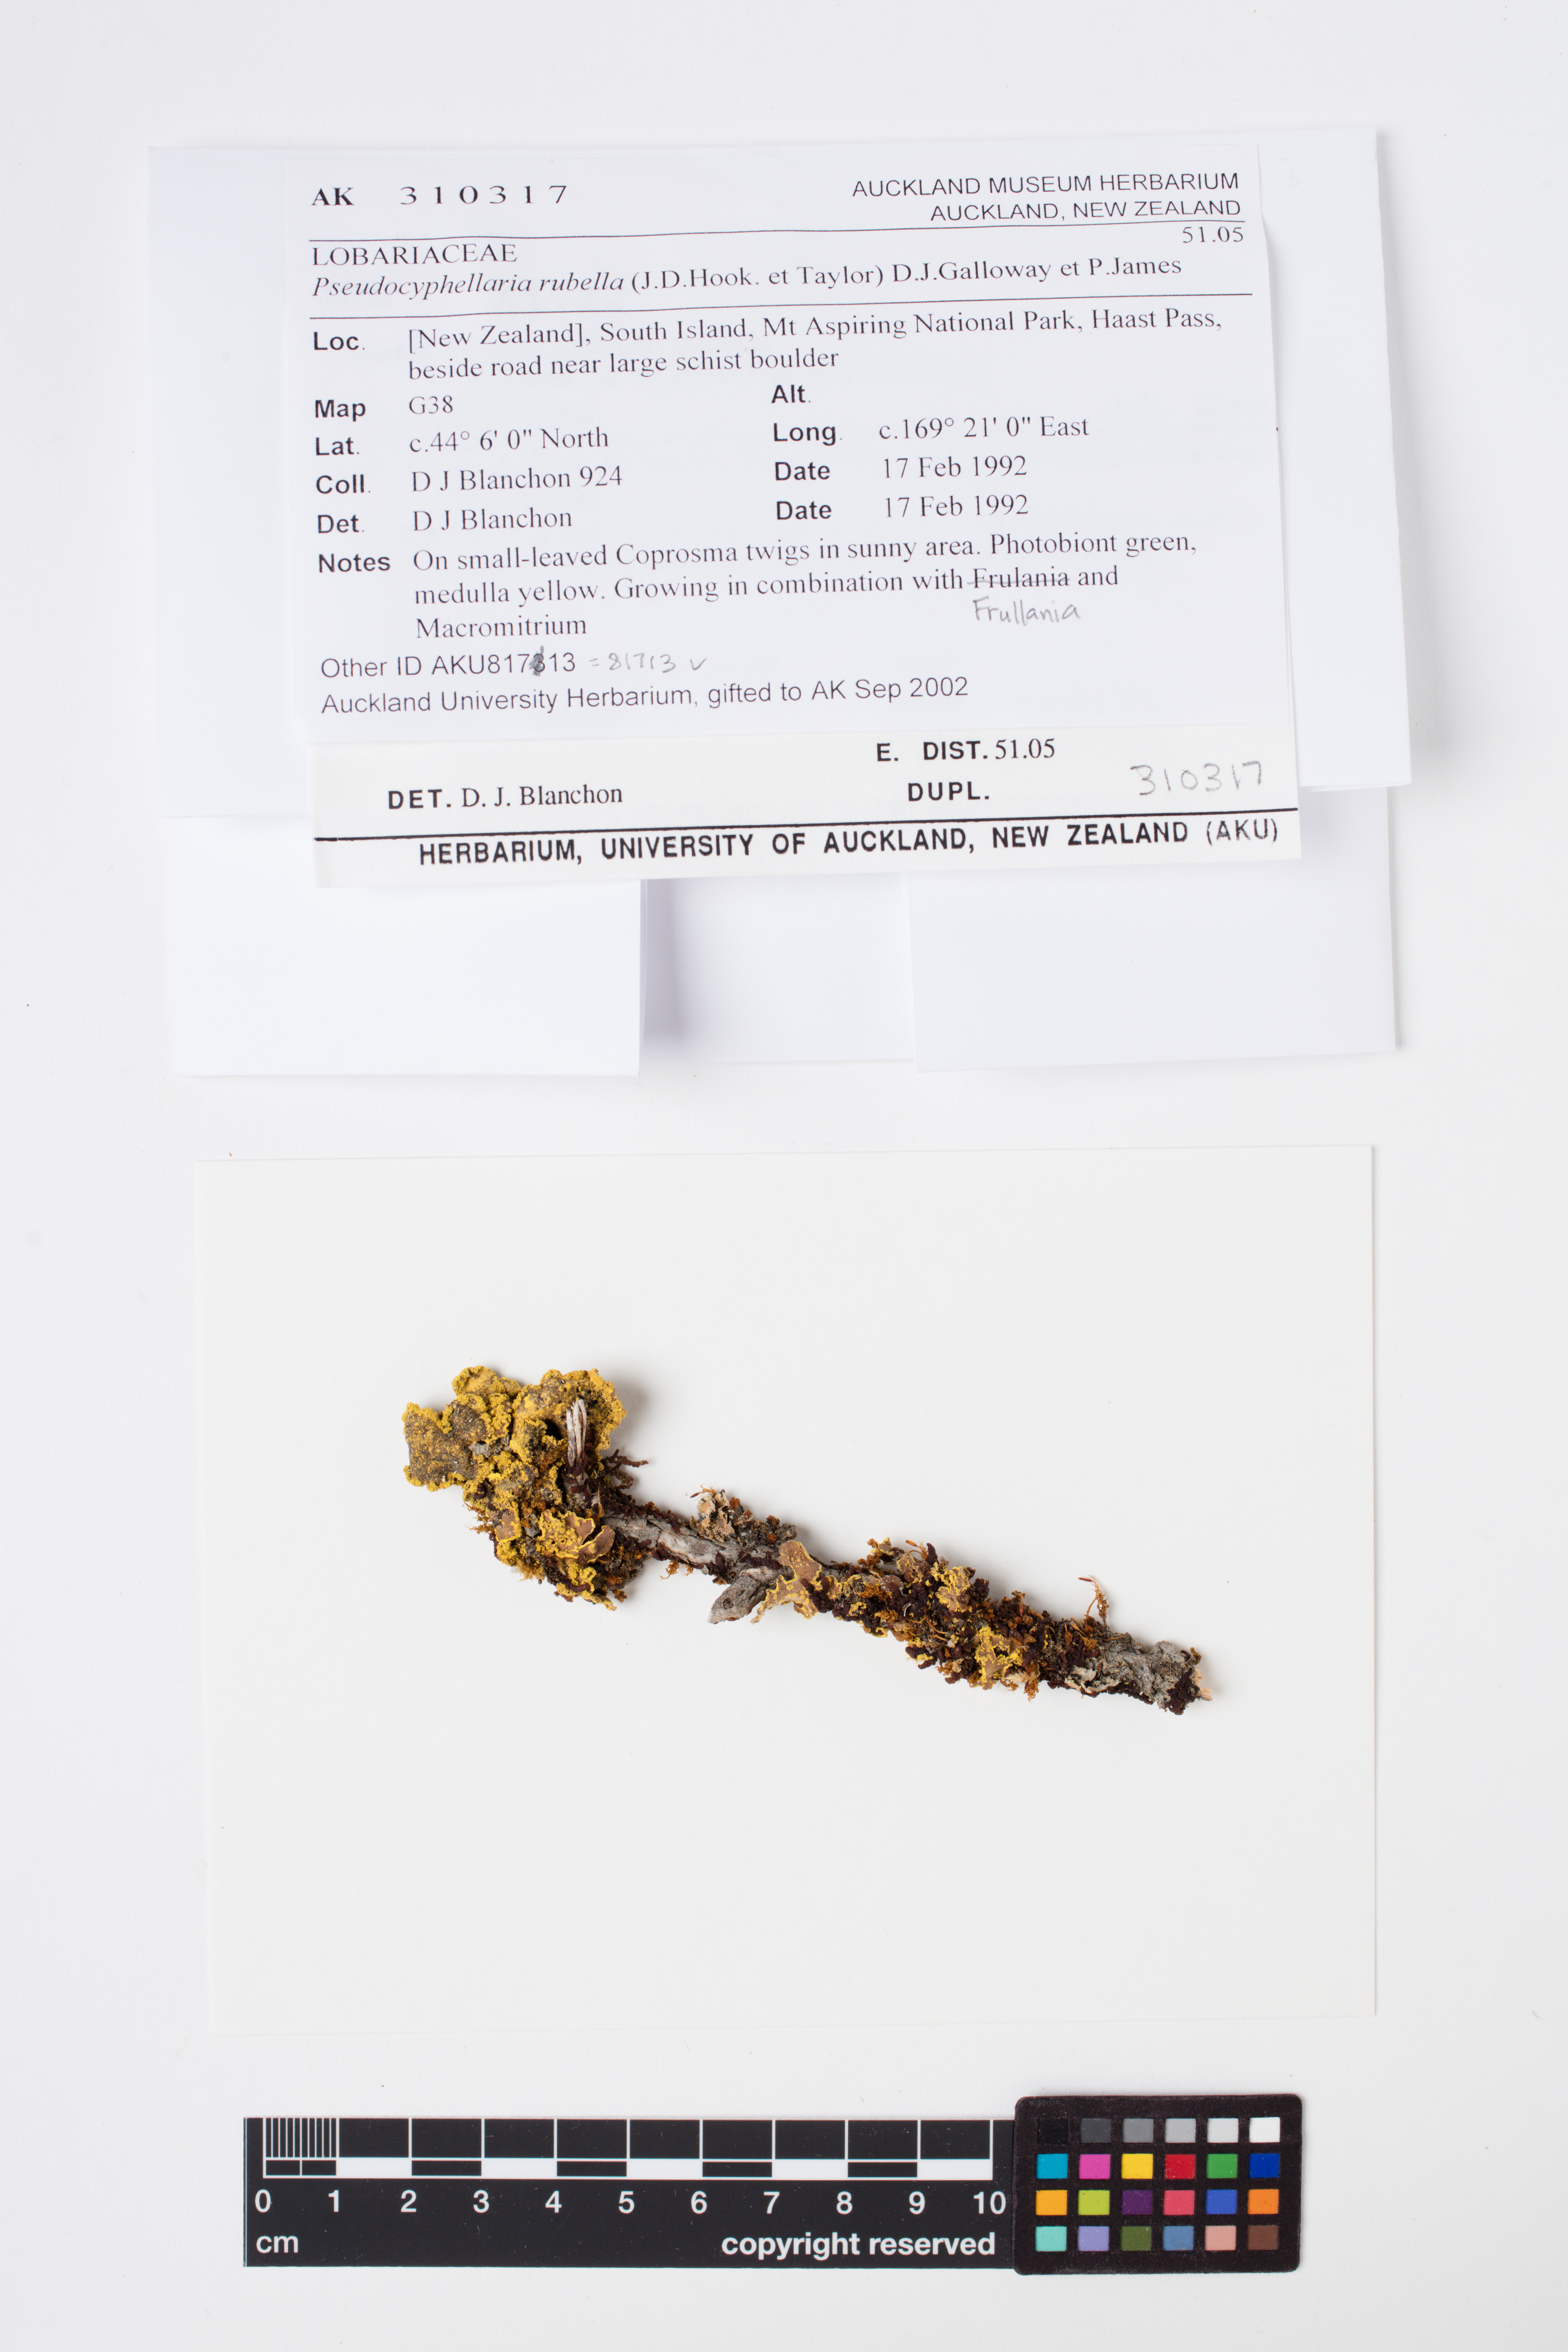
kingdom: Fungi
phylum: Ascomycota
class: Lecanoromycetes
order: Peltigerales
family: Lobariaceae
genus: Pseudocyphellaria
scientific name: Pseudocyphellaria rubella
